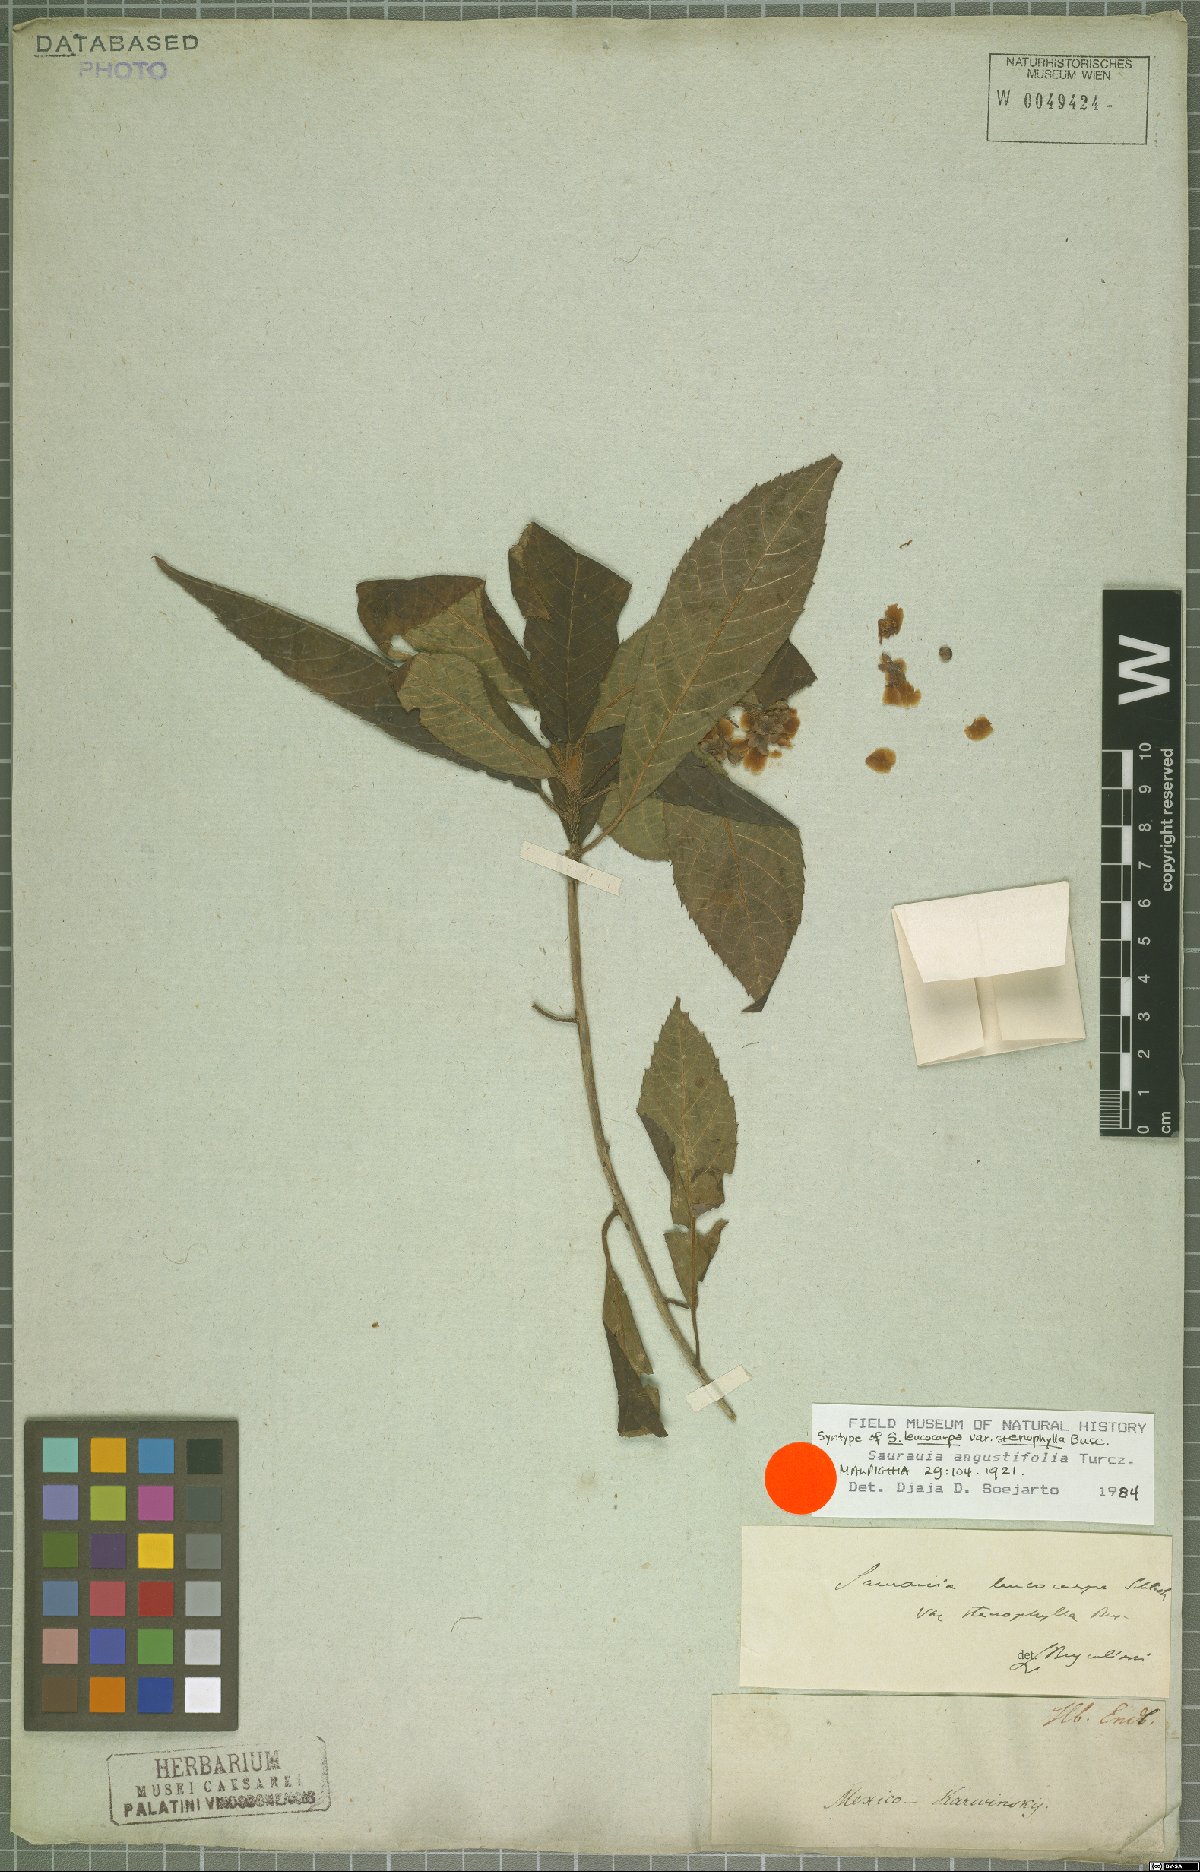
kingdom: Plantae
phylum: Tracheophyta
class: Magnoliopsida
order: Ericales
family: Actinidiaceae
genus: Saurauia
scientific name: Saurauia angustifolia
